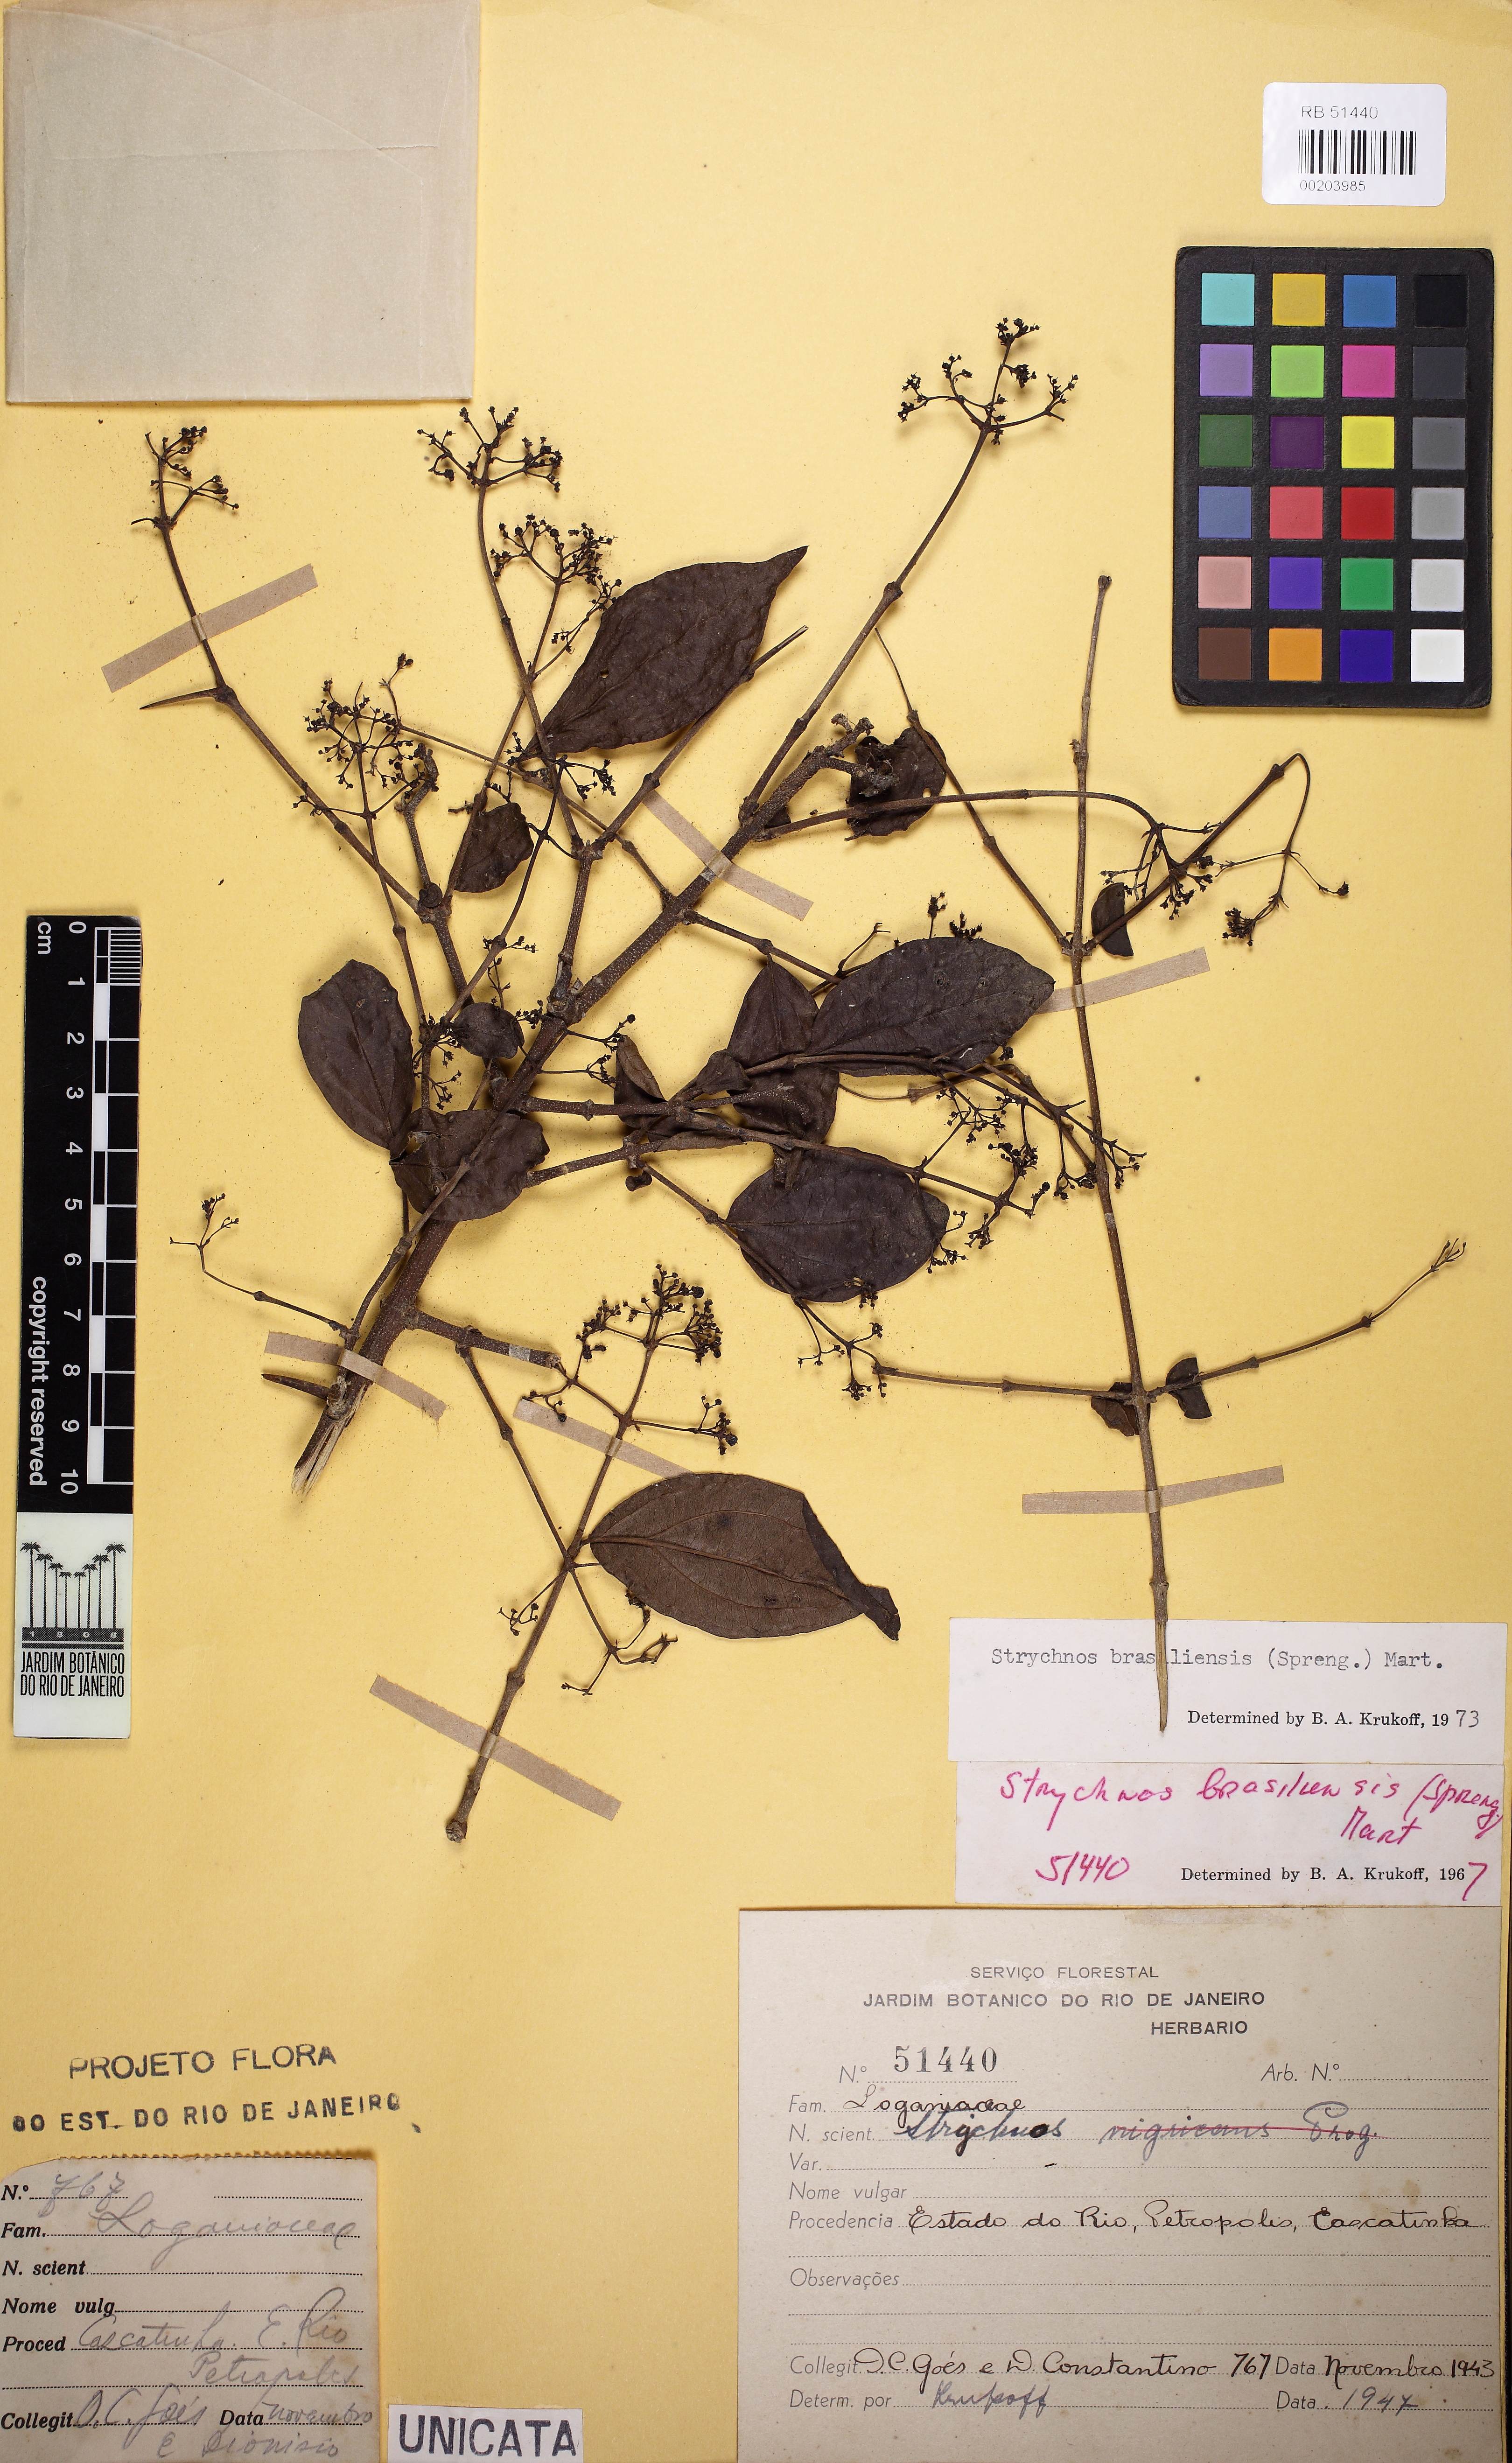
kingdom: Plantae
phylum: Tracheophyta
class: Magnoliopsida
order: Gentianales
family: Loganiaceae
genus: Strychnos
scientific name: Strychnos brasiliensis
